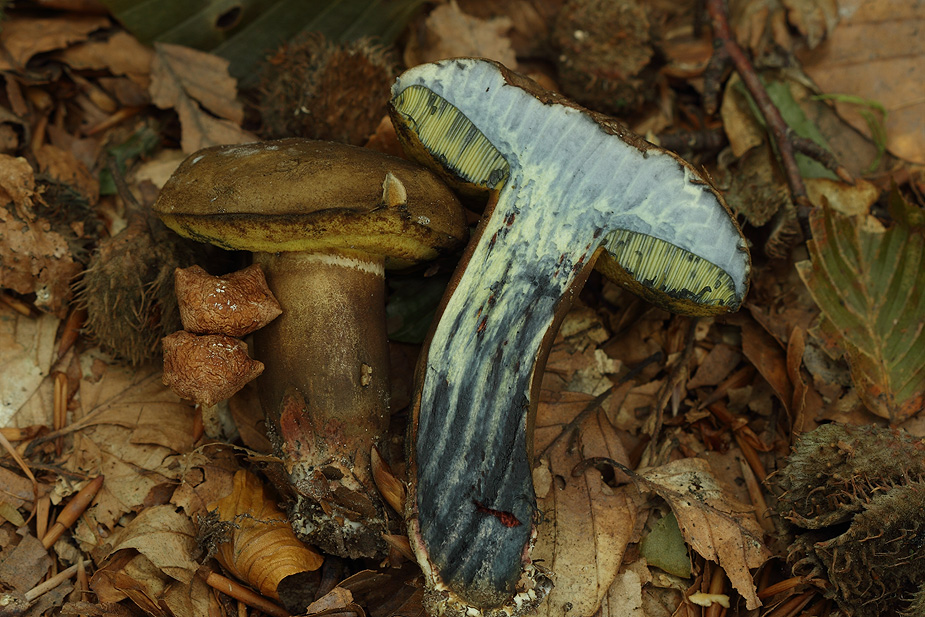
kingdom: Fungi
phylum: Basidiomycota
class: Agaricomycetes
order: Boletales
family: Boletaceae
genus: Cyanoboletus
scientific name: Cyanoboletus pulverulentus
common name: sortblånende rørhat
